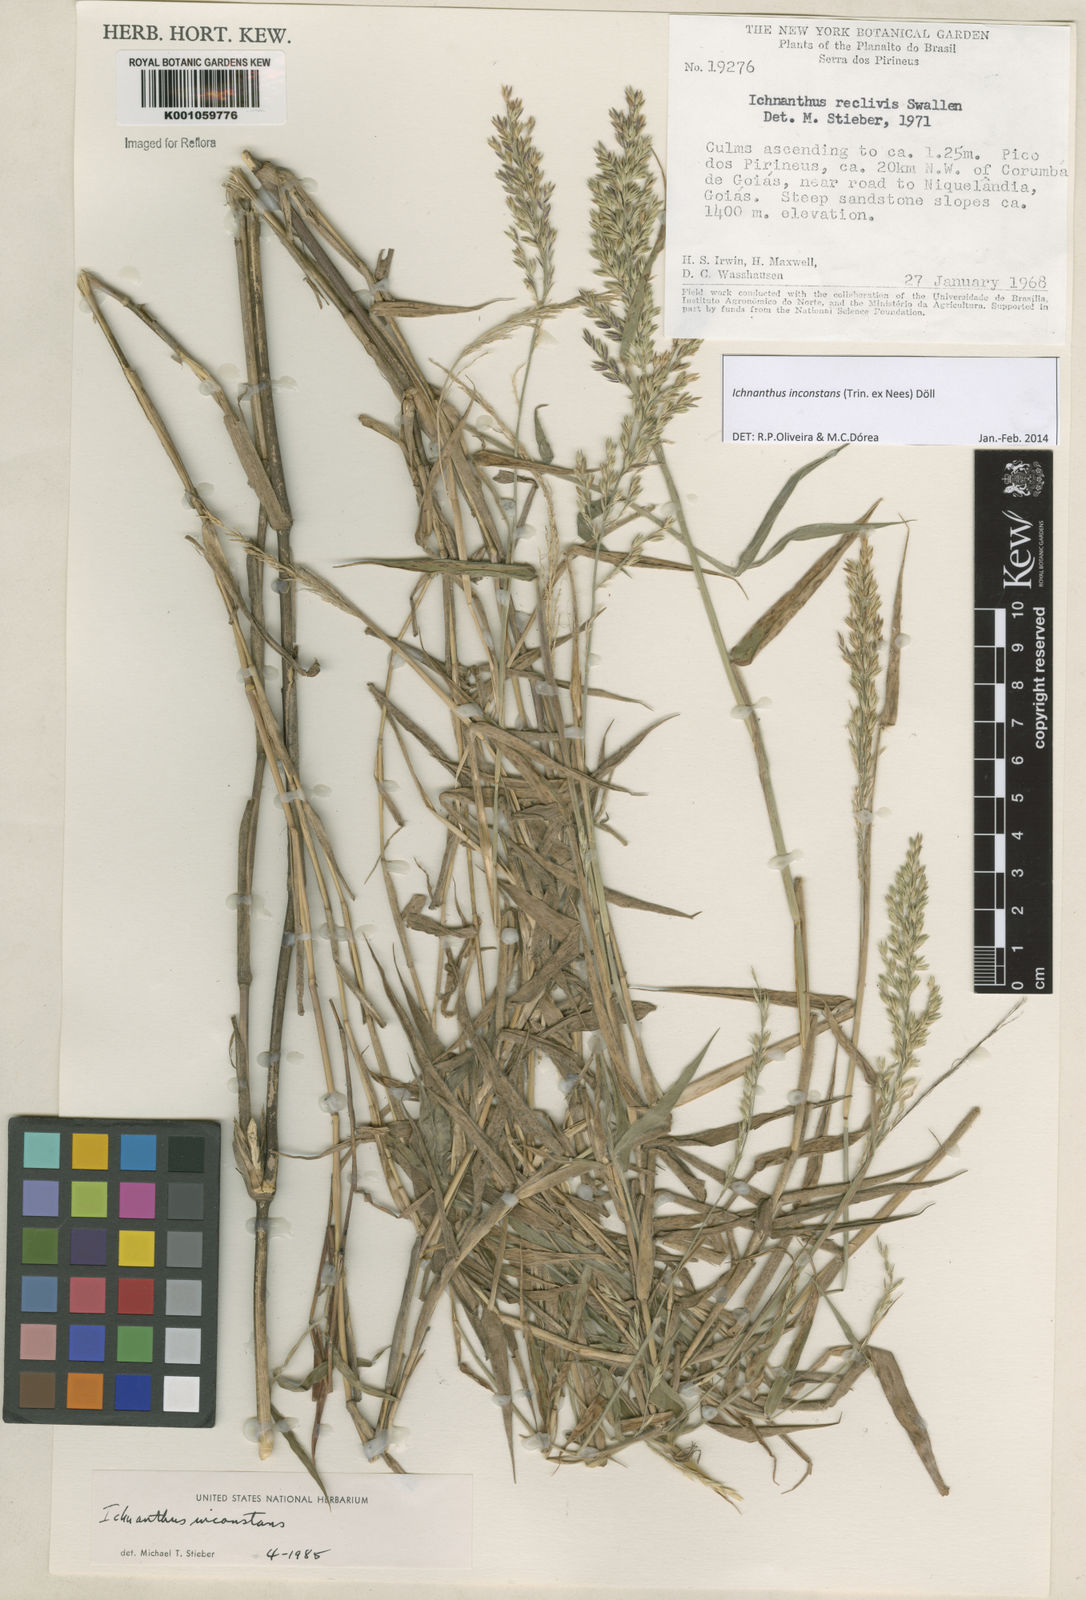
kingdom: Plantae
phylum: Tracheophyta
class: Liliopsida
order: Poales
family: Poaceae
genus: Ichnanthus
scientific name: Ichnanthus
